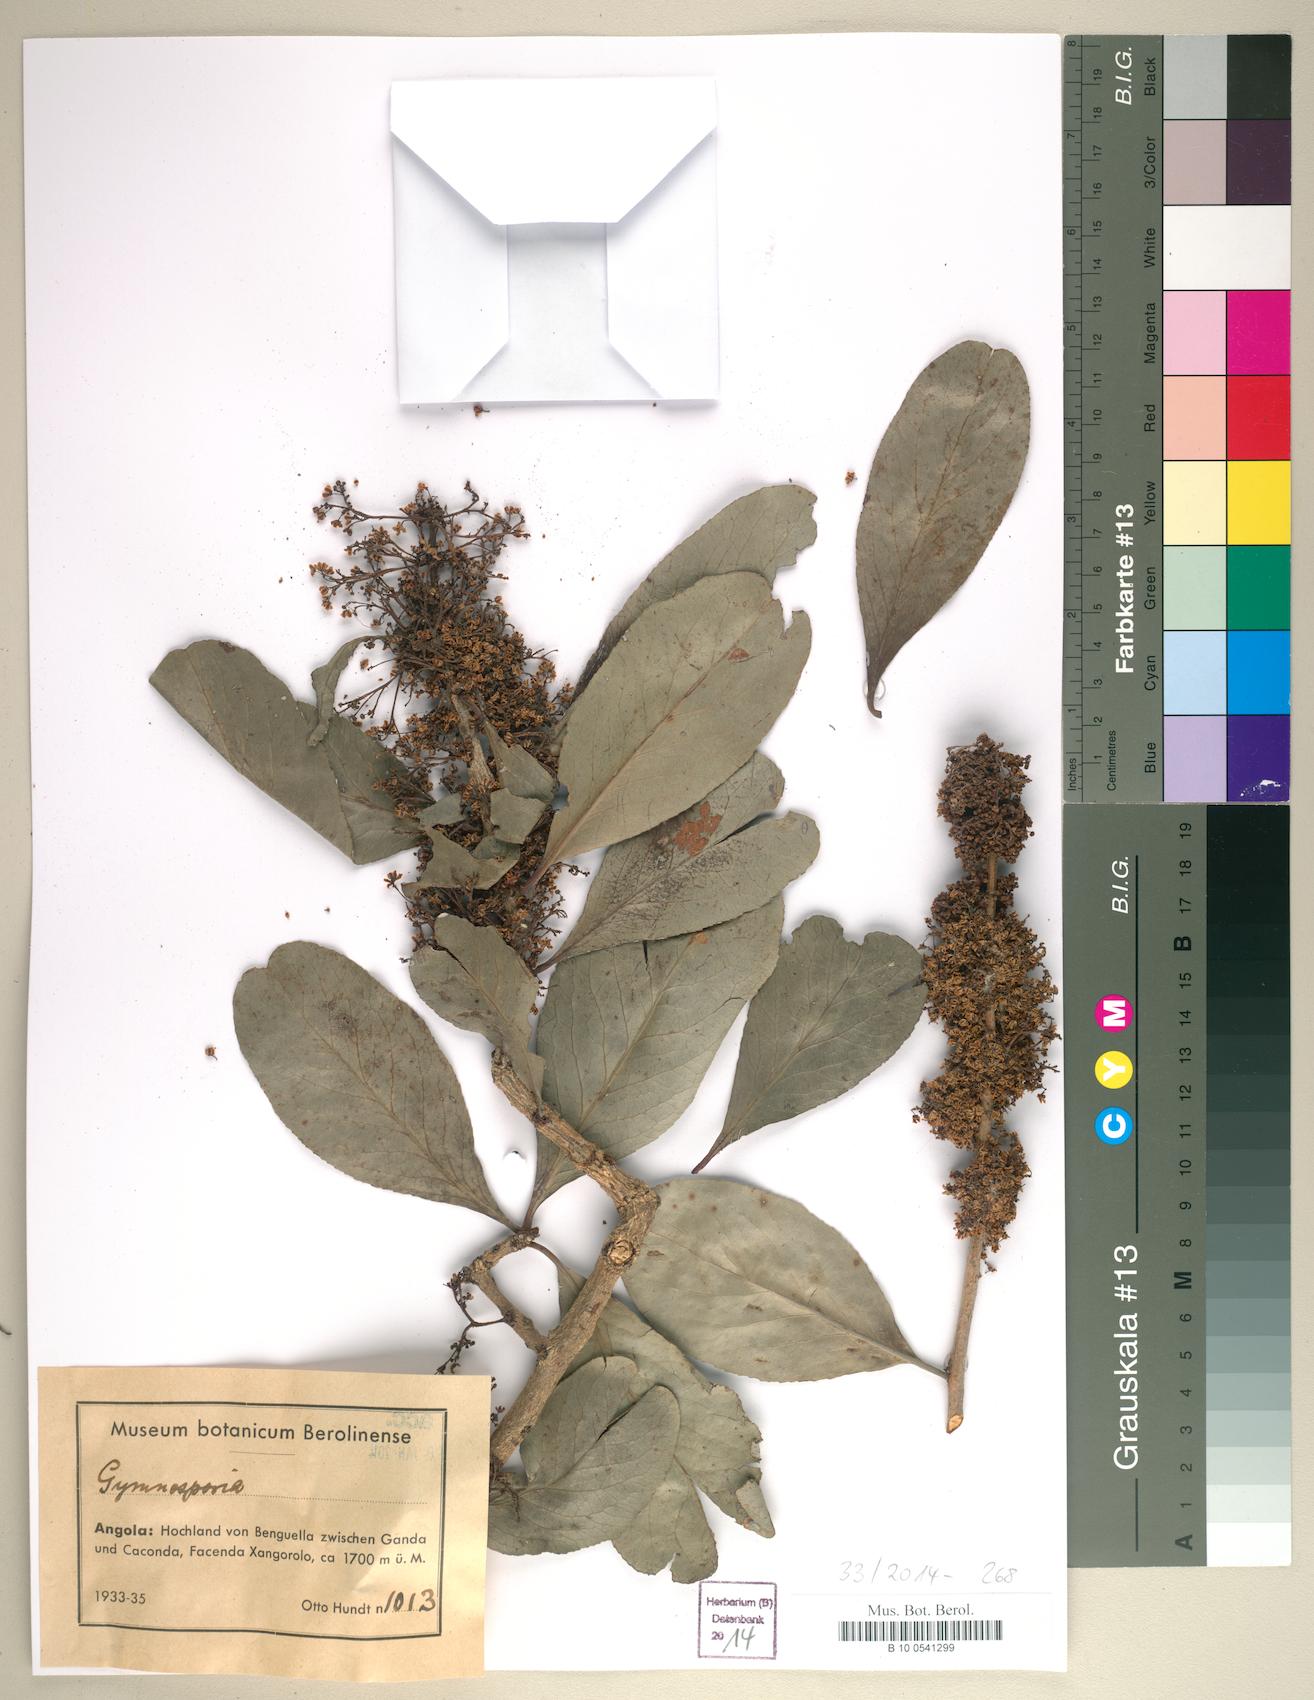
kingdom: Plantae
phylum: Tracheophyta
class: Magnoliopsida
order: Celastrales
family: Celastraceae
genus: Gymnosporia
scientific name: Gymnosporia
